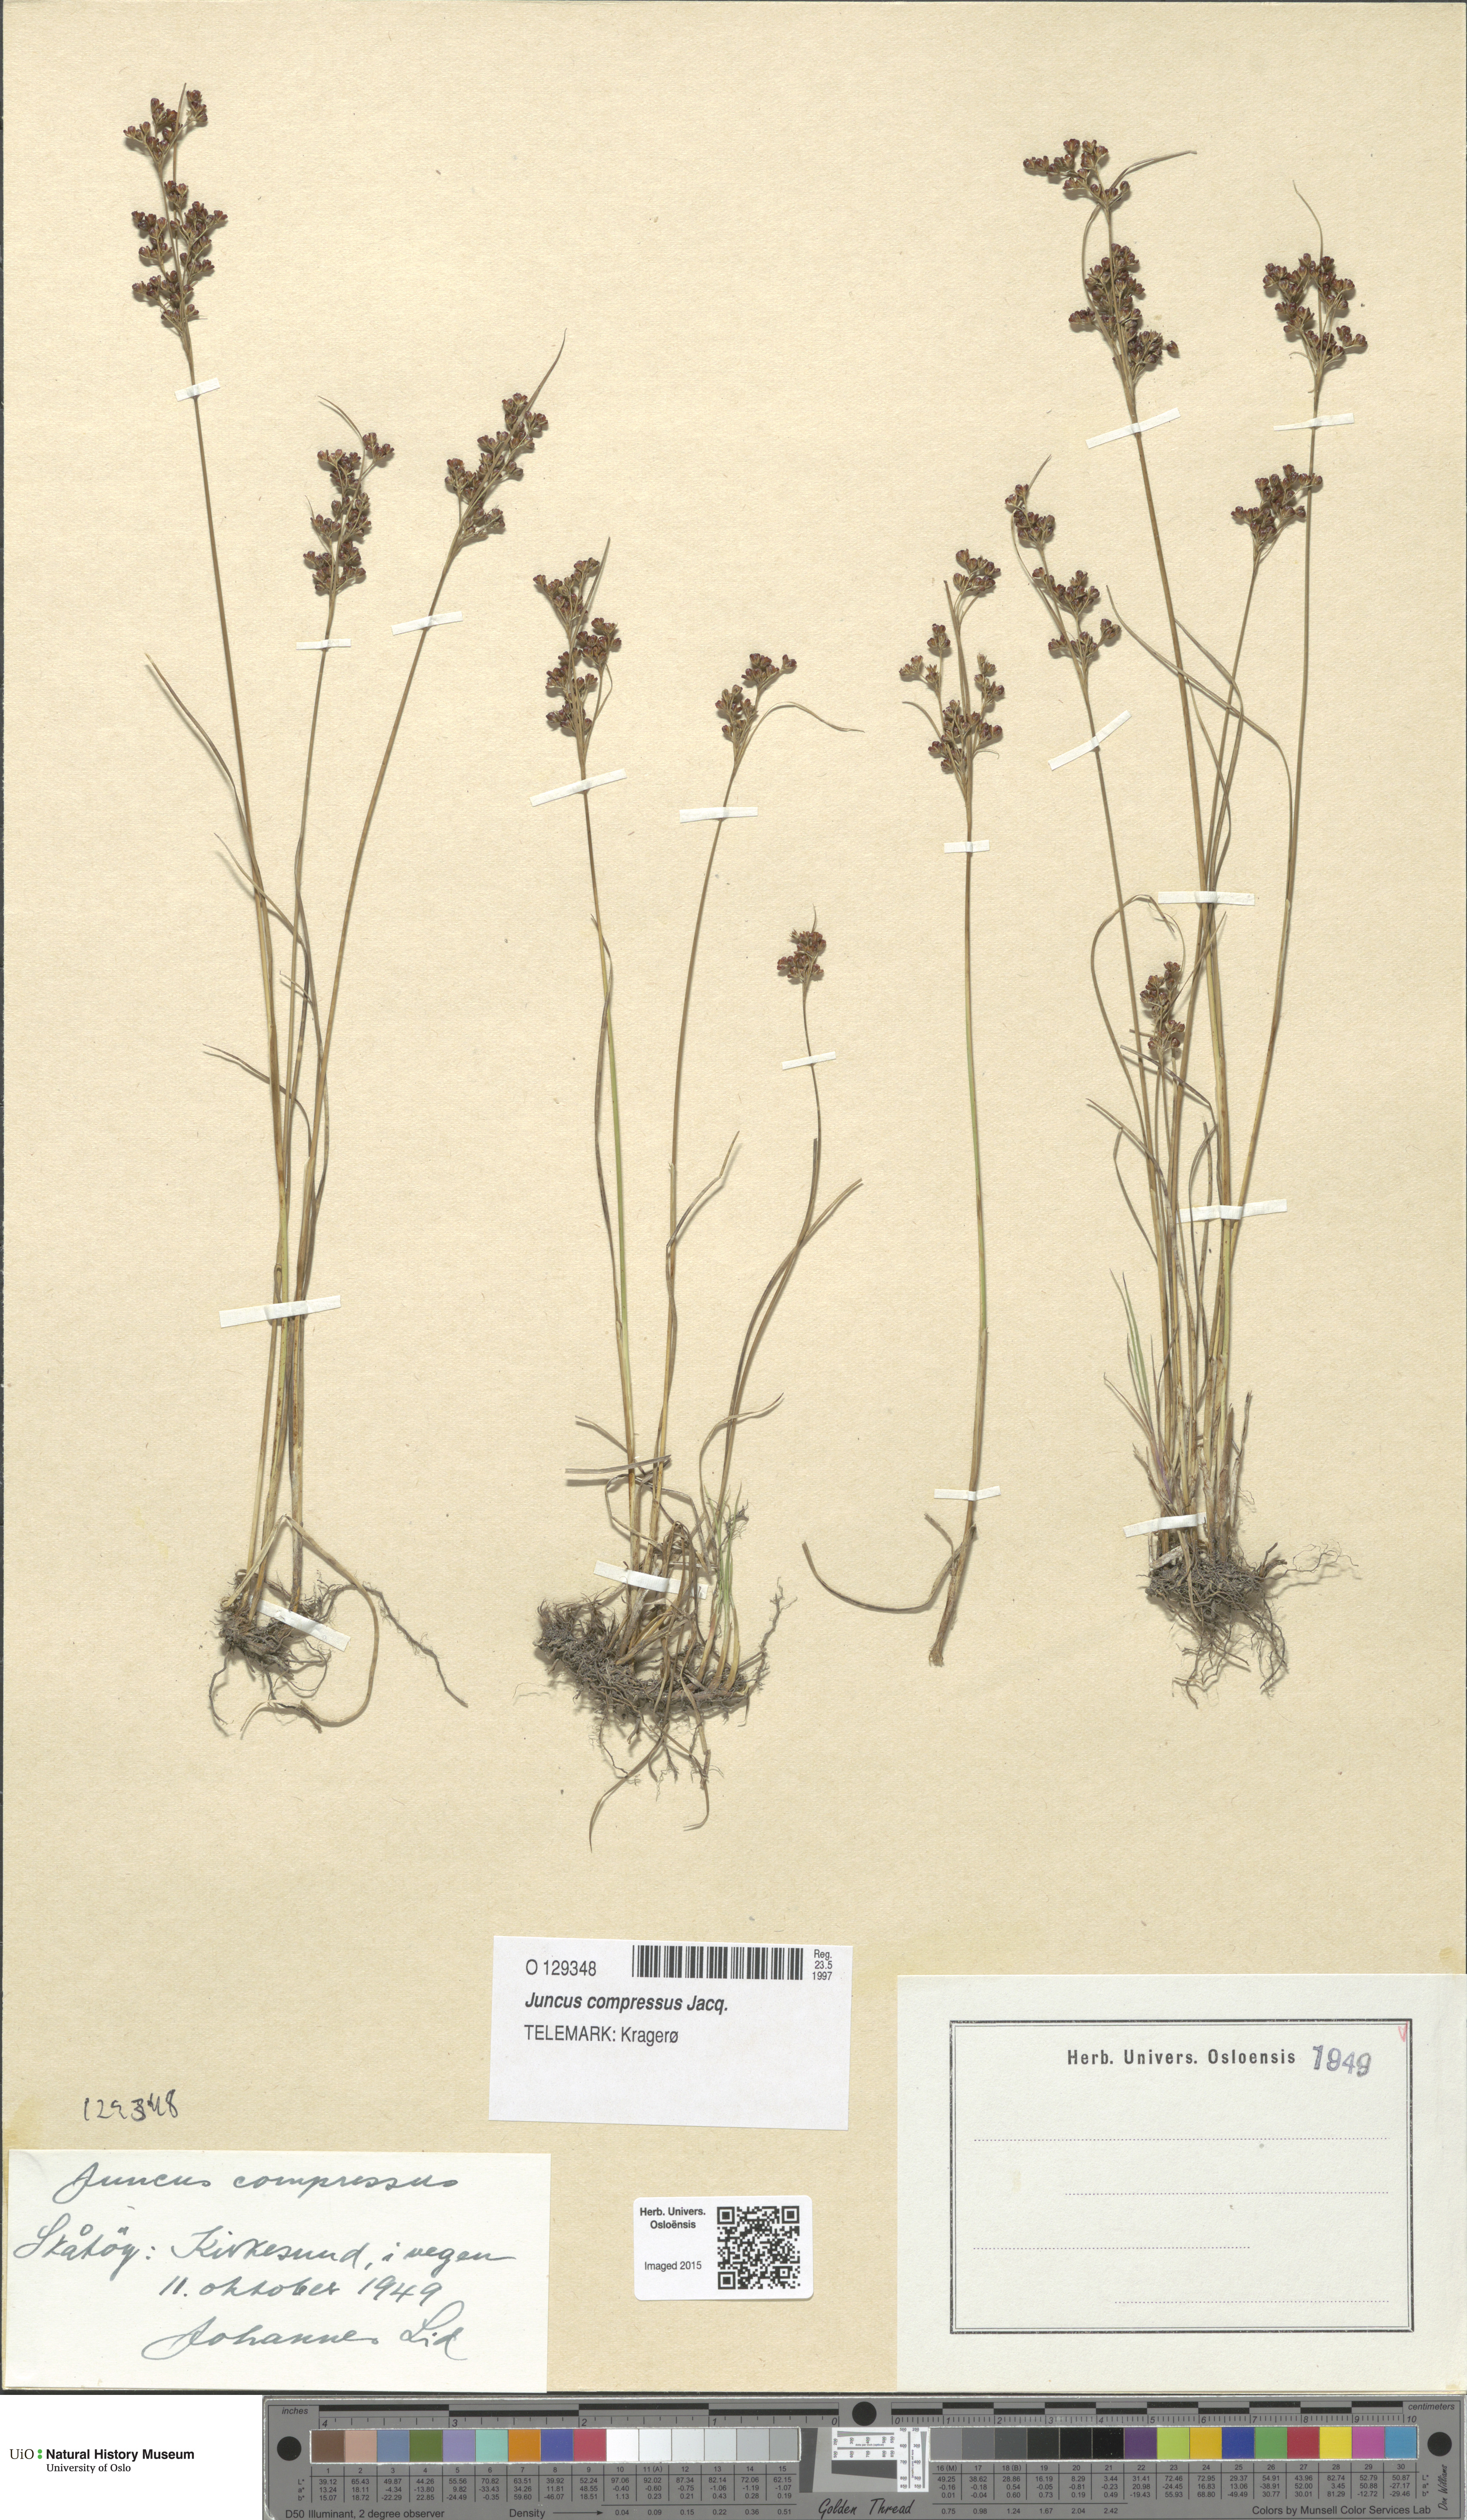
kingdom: Plantae
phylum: Tracheophyta
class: Liliopsida
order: Poales
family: Juncaceae
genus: Juncus
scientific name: Juncus compressus
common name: Round-fruited rush
